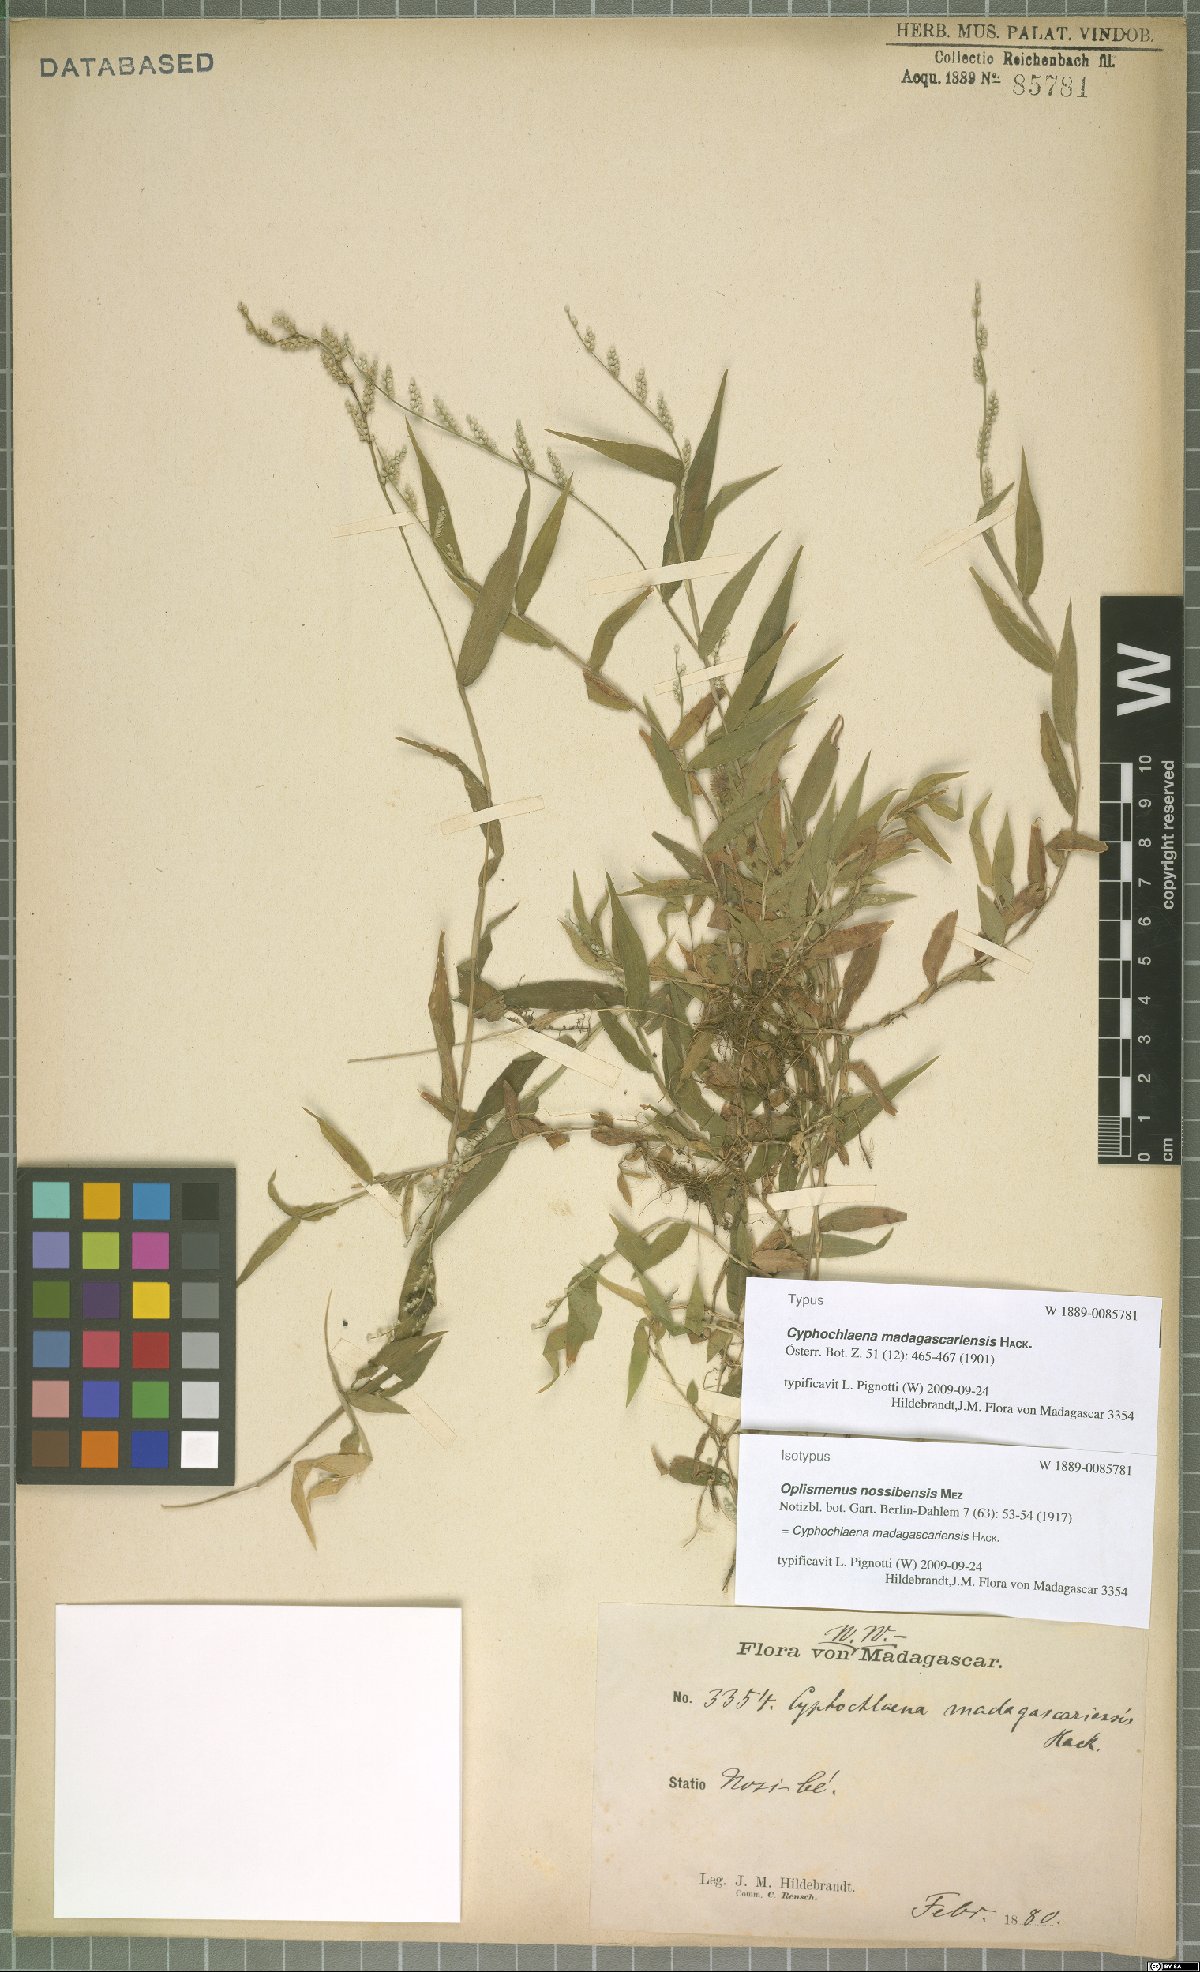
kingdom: Plantae
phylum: Tracheophyta
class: Liliopsida
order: Poales
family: Poaceae
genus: Cyphochlaena
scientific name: Cyphochlaena madagascariensis
